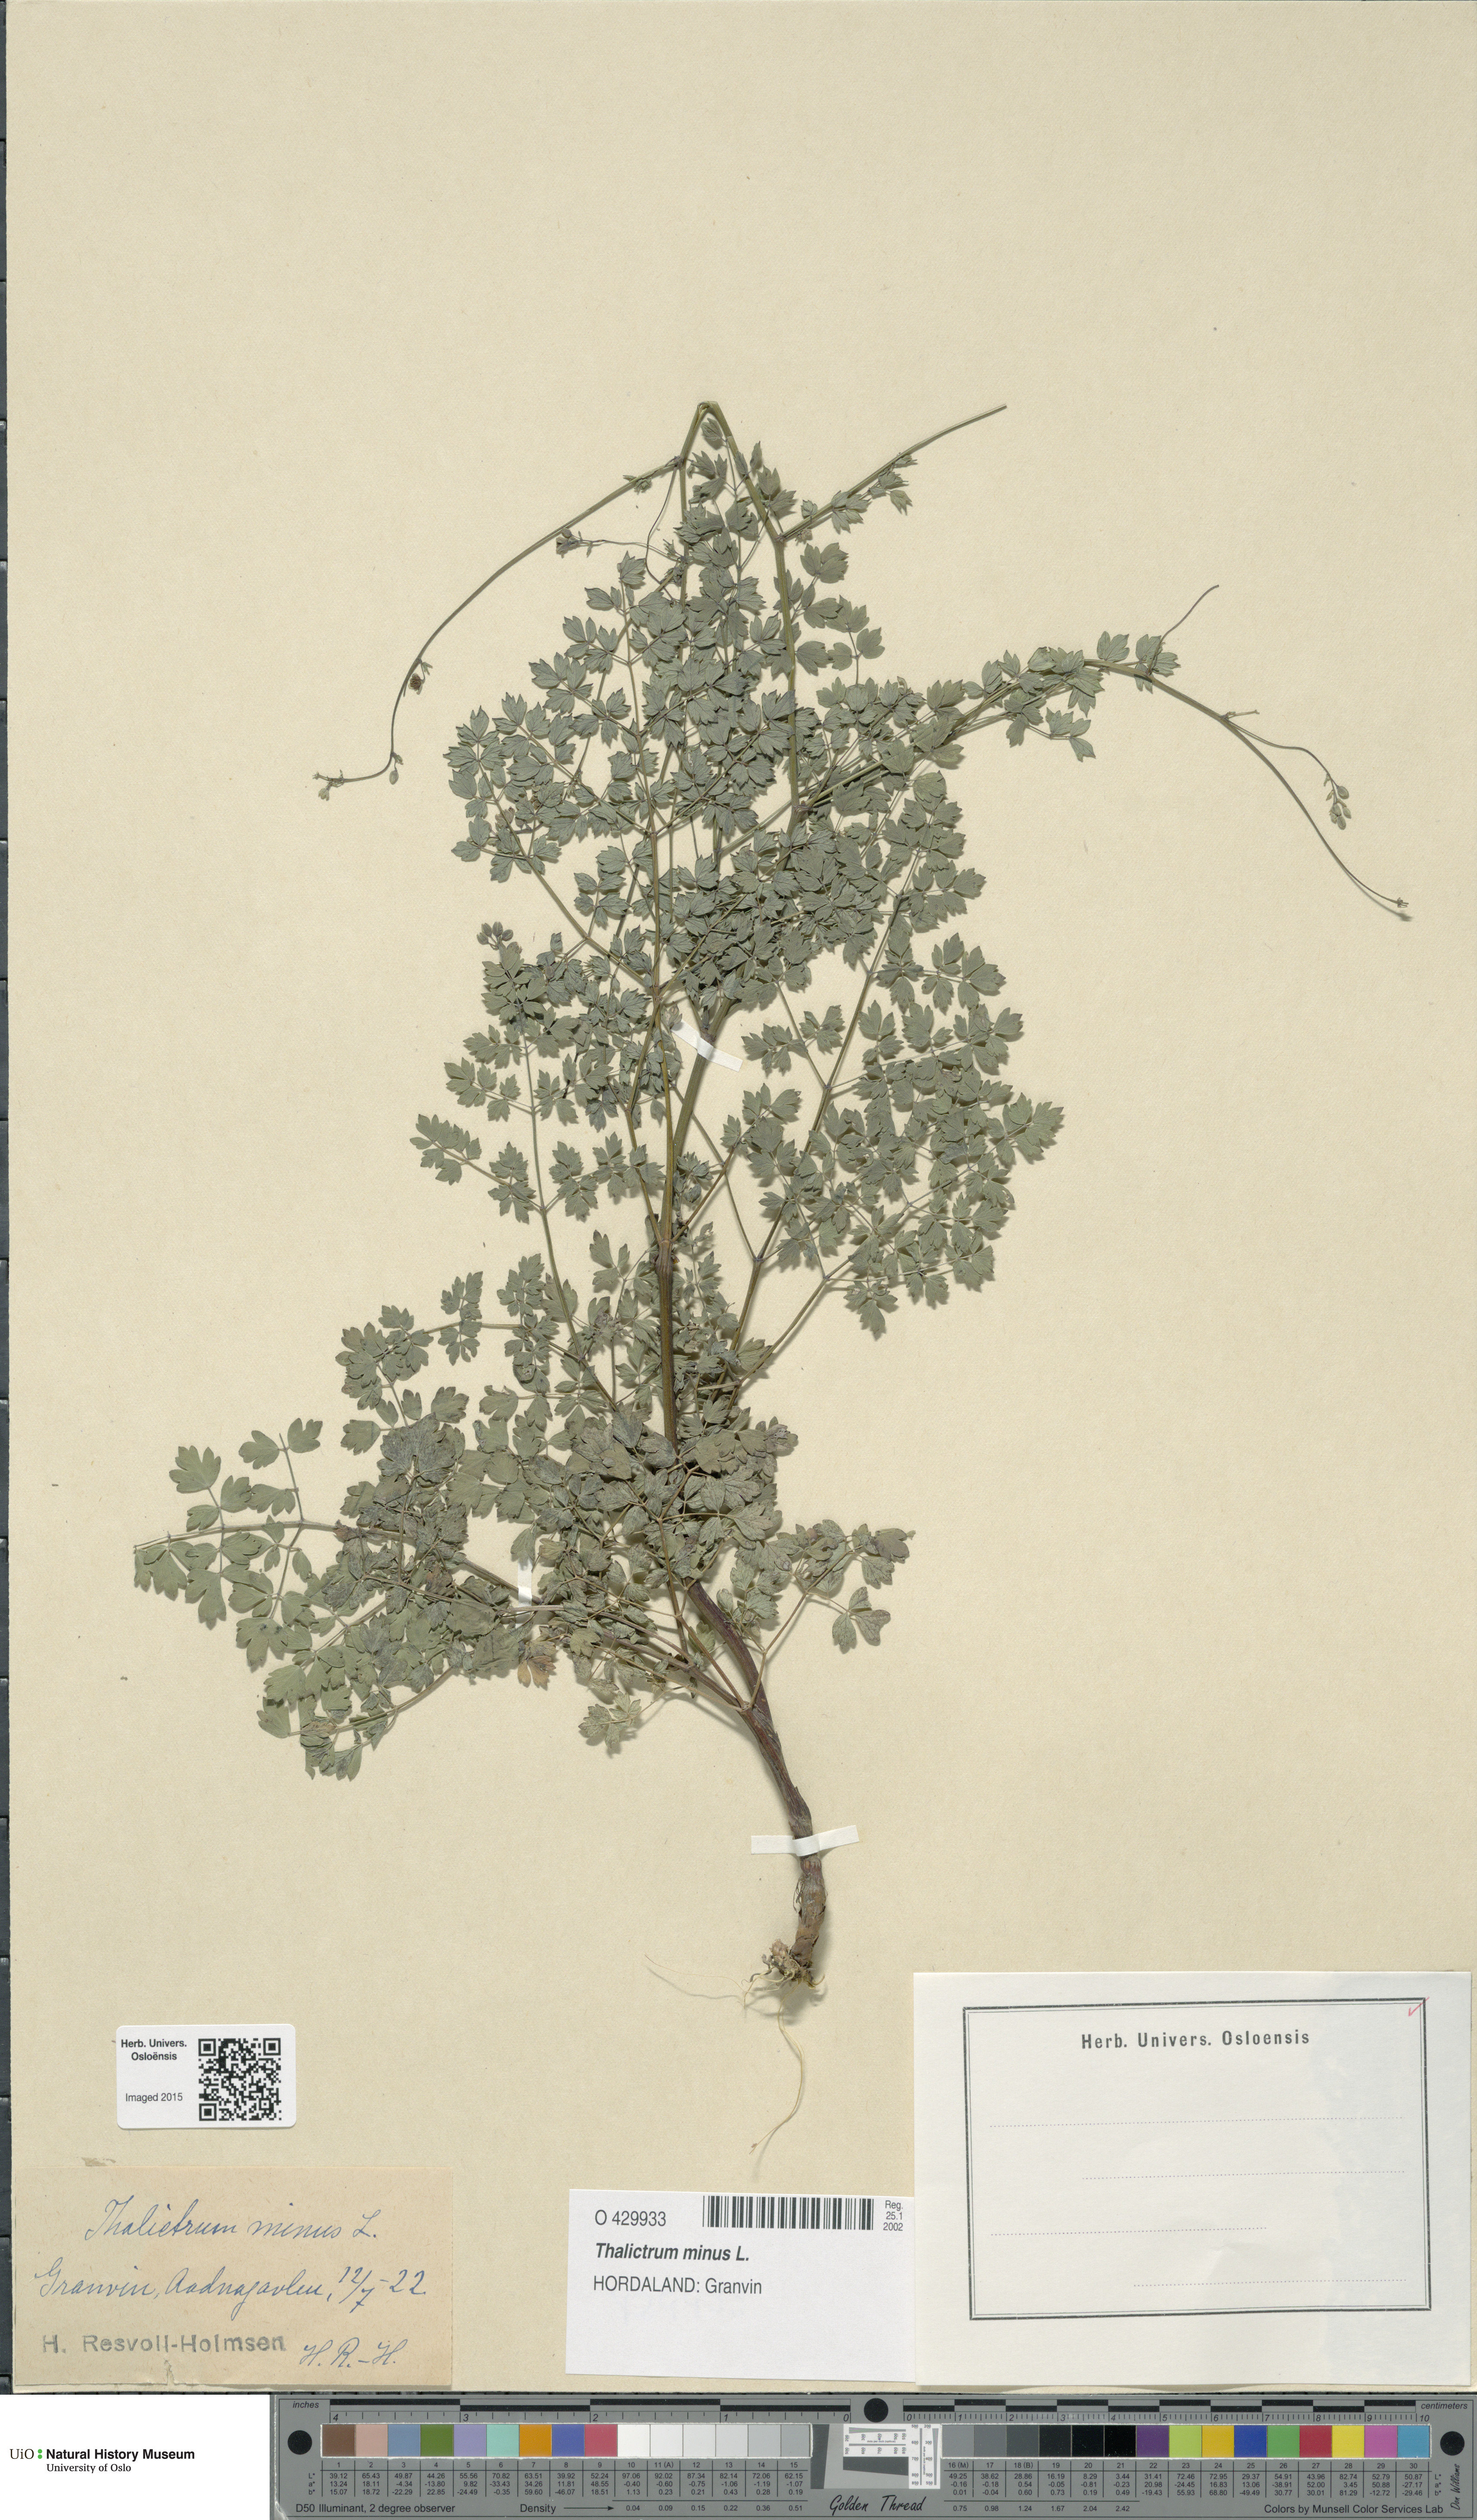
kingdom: Plantae
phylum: Tracheophyta
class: Magnoliopsida
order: Ranunculales
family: Ranunculaceae
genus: Thalictrum
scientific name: Thalictrum minus
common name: Lesser meadow-rue
